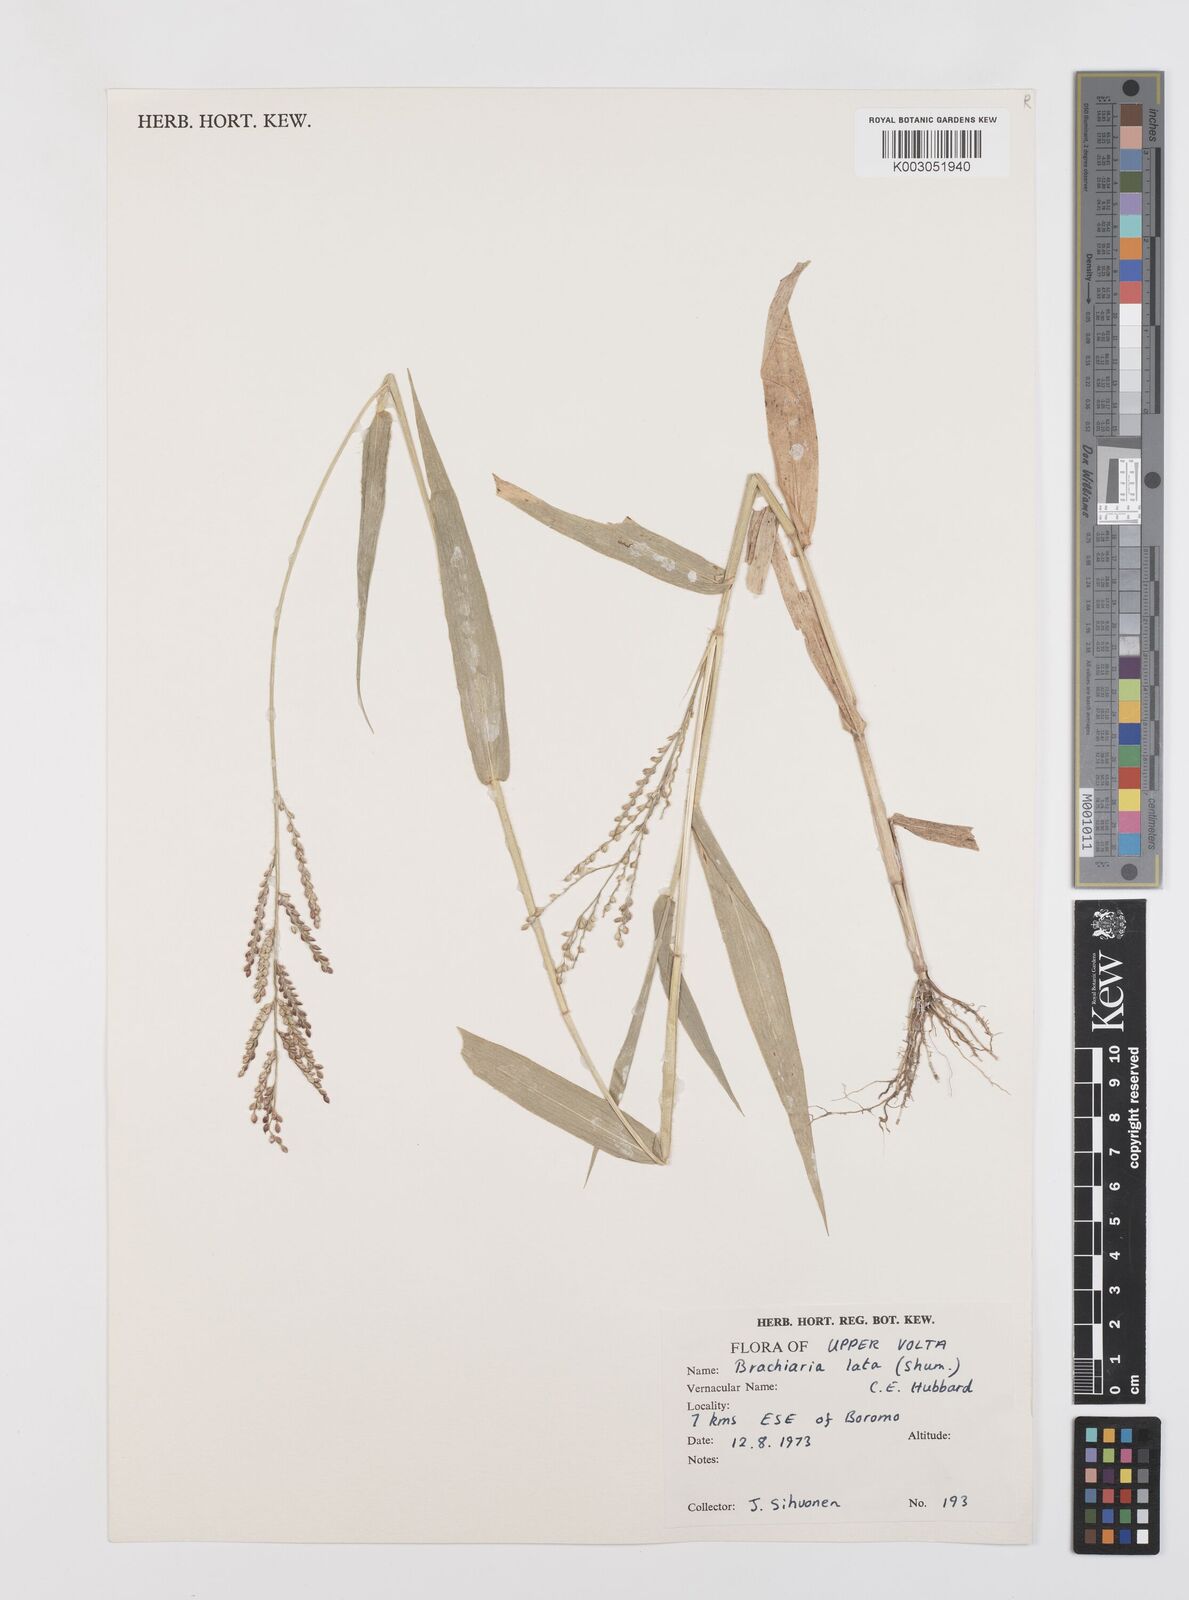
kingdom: Plantae
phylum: Tracheophyta
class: Liliopsida
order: Poales
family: Poaceae
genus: Urochloa
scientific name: Urochloa lata
